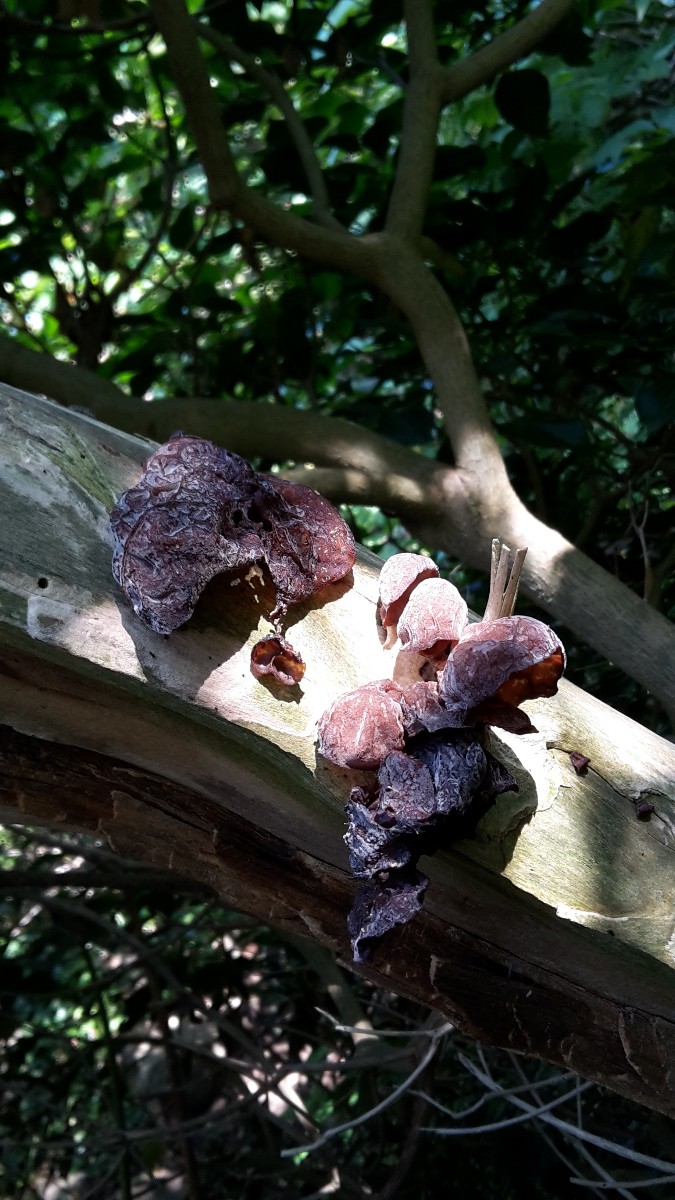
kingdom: Fungi
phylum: Basidiomycota
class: Agaricomycetes
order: Auriculariales
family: Auriculariaceae
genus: Auricularia
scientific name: Auricularia auricula-judae
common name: almindelig judasøre
